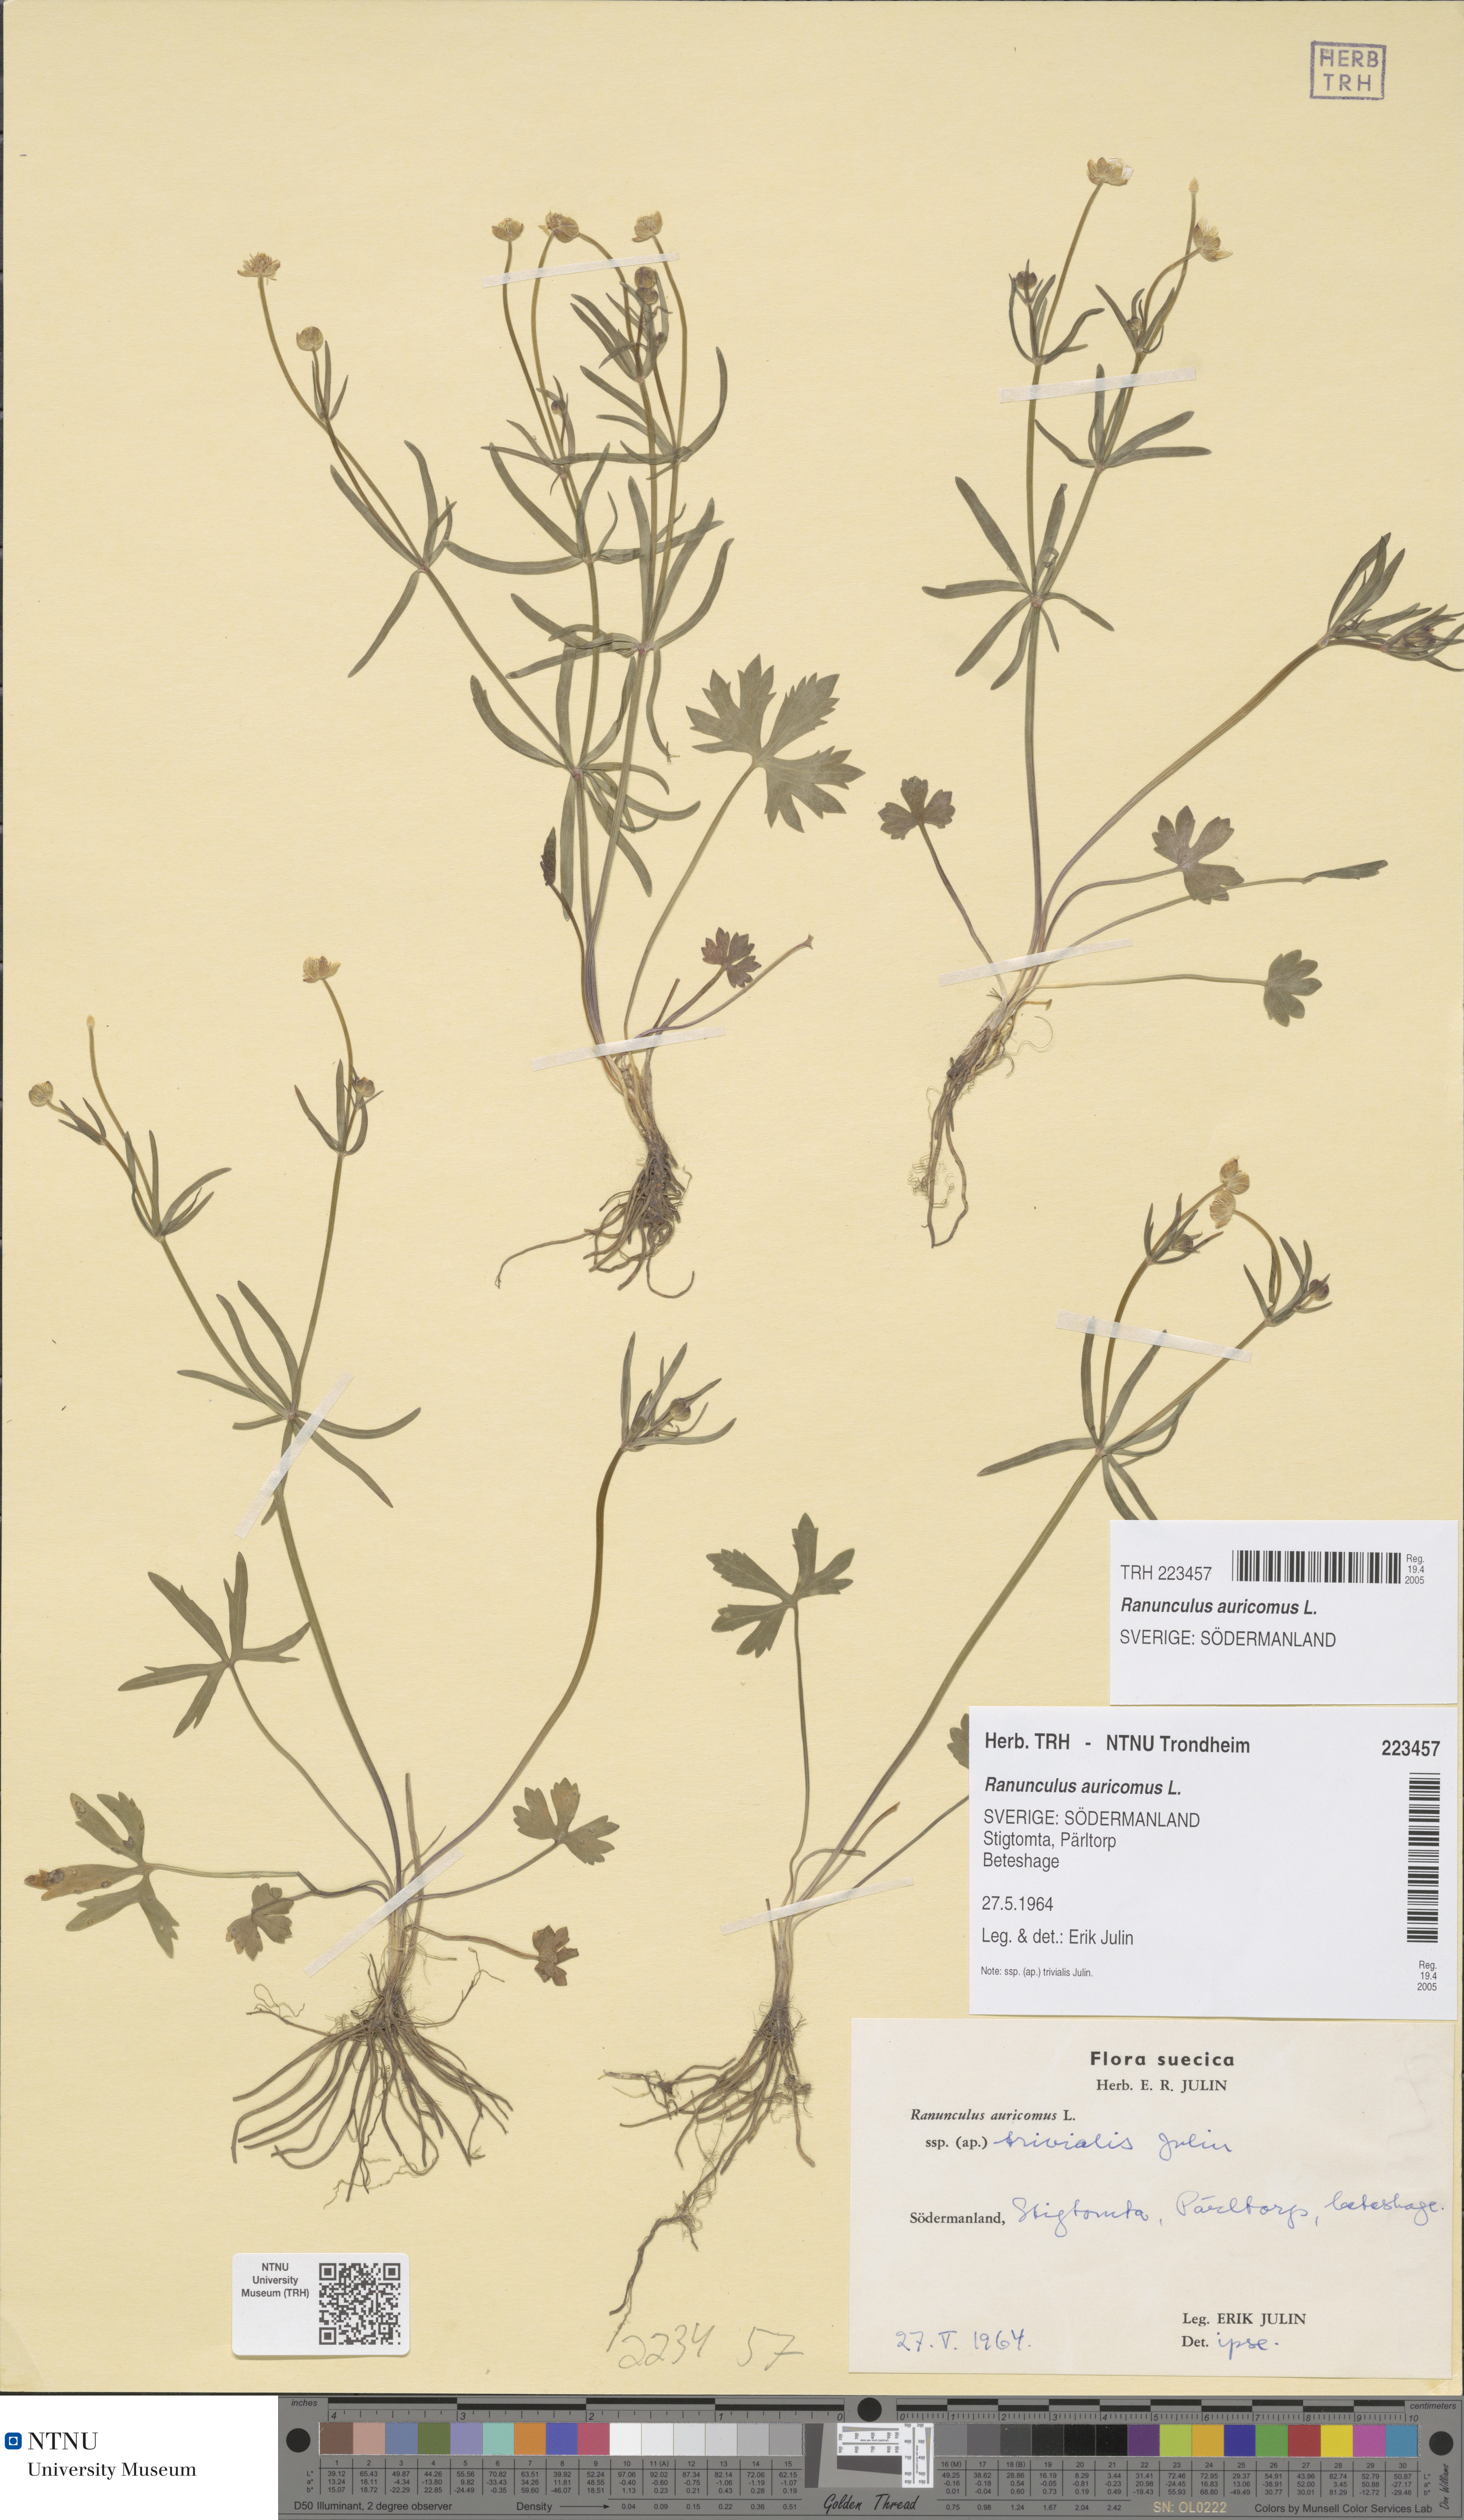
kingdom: Plantae
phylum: Tracheophyta
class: Magnoliopsida
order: Ranunculales
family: Ranunculaceae
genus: Ranunculus
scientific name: Ranunculus auricomus
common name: Goldilocks buttercup
